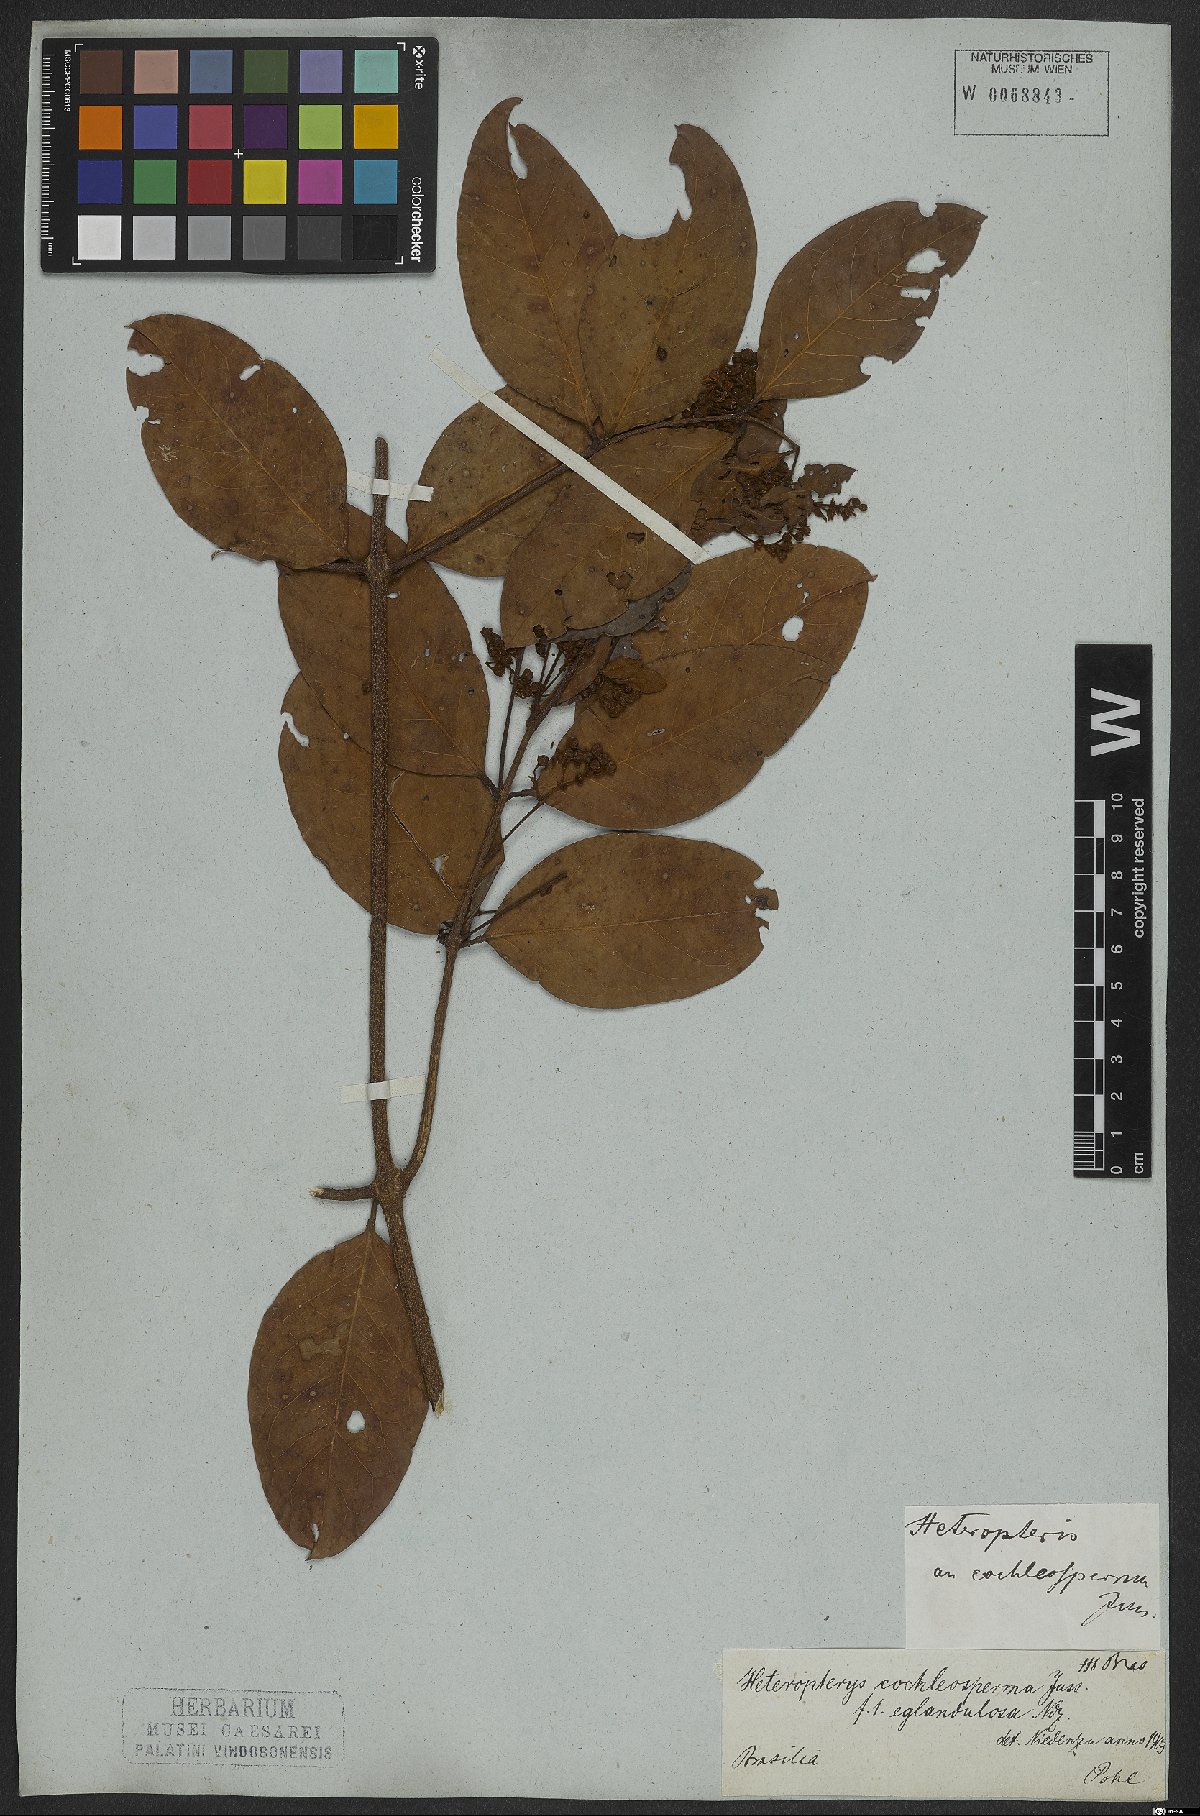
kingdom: Plantae
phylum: Tracheophyta
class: Magnoliopsida
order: Malpighiales
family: Malpighiaceae
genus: Heteropterys
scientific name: Heteropterys cochleosperma
